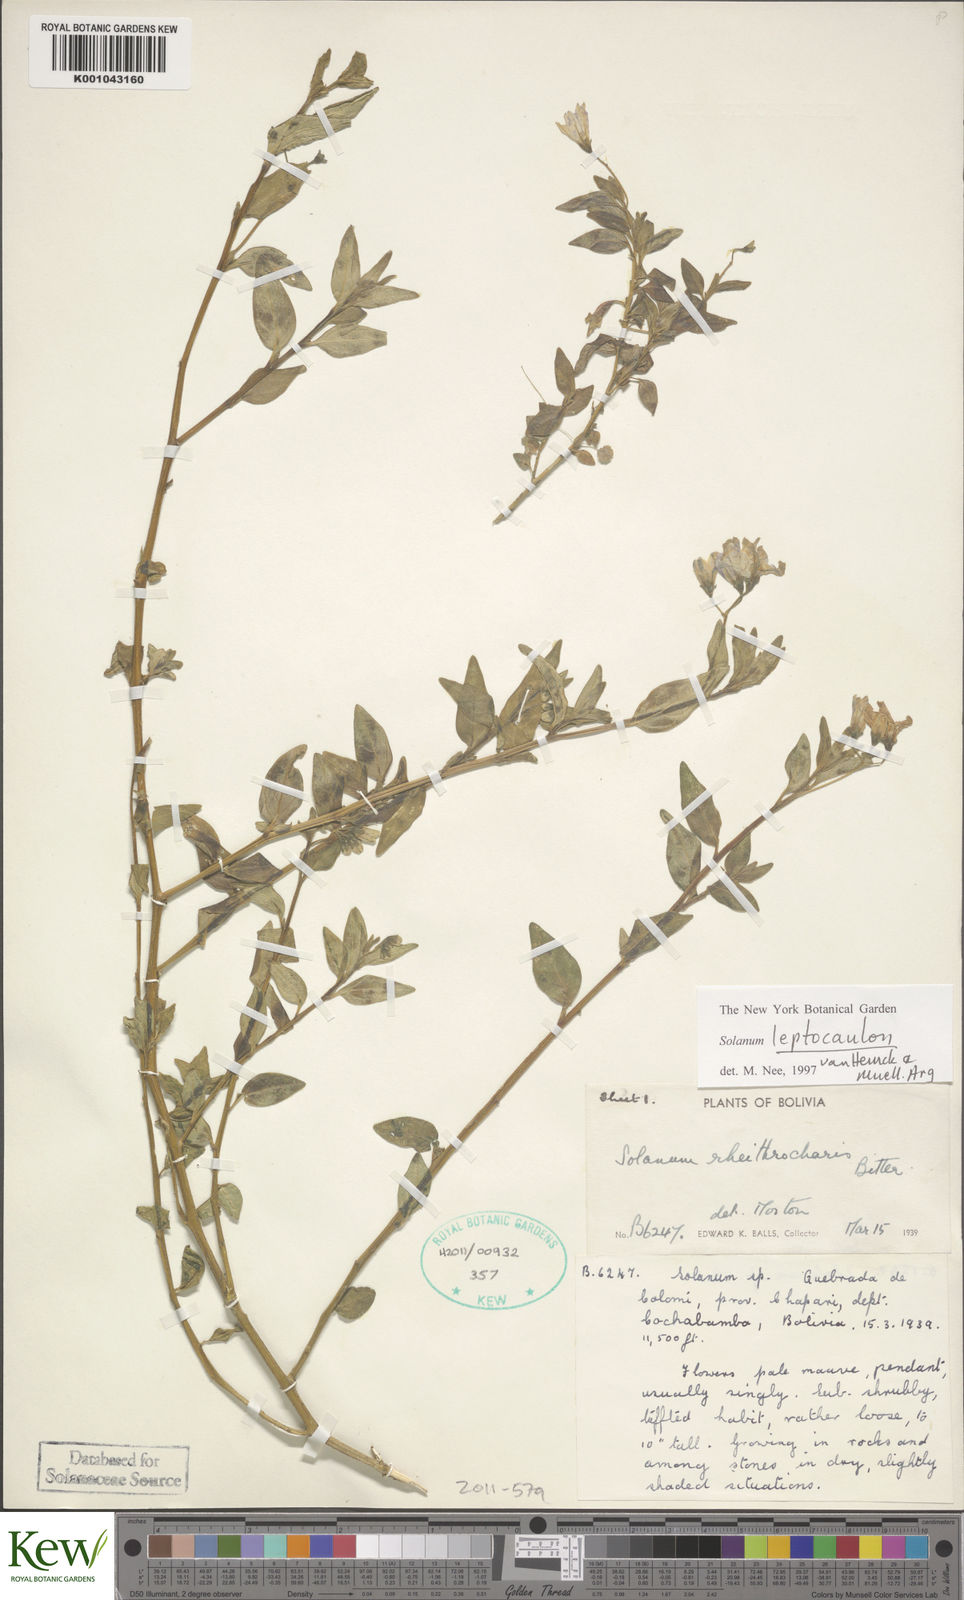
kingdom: Plantae
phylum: Tracheophyta
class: Magnoliopsida
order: Solanales
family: Solanaceae
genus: Solanum
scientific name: Solanum
